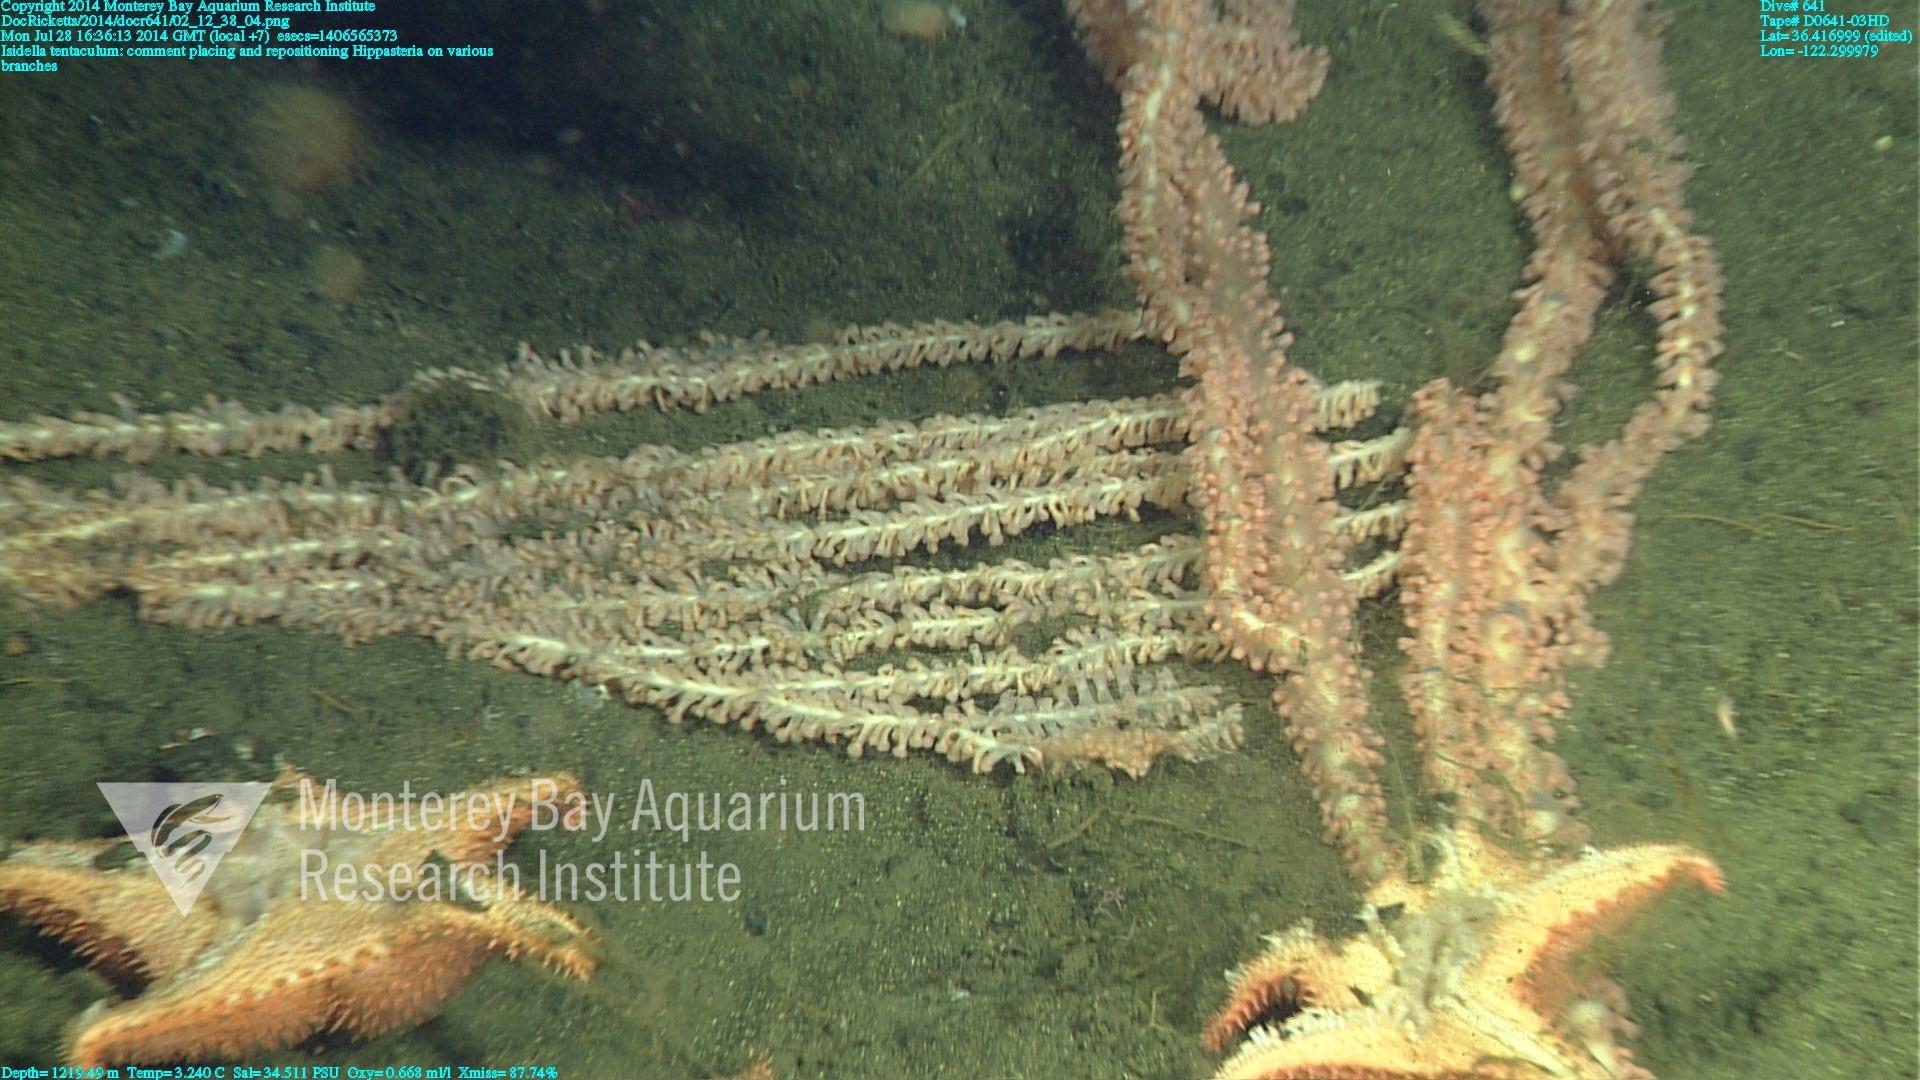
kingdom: Animalia
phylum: Cnidaria
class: Anthozoa
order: Scleralcyonacea
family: Keratoisididae
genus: Isidella
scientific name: Isidella tentaculum
